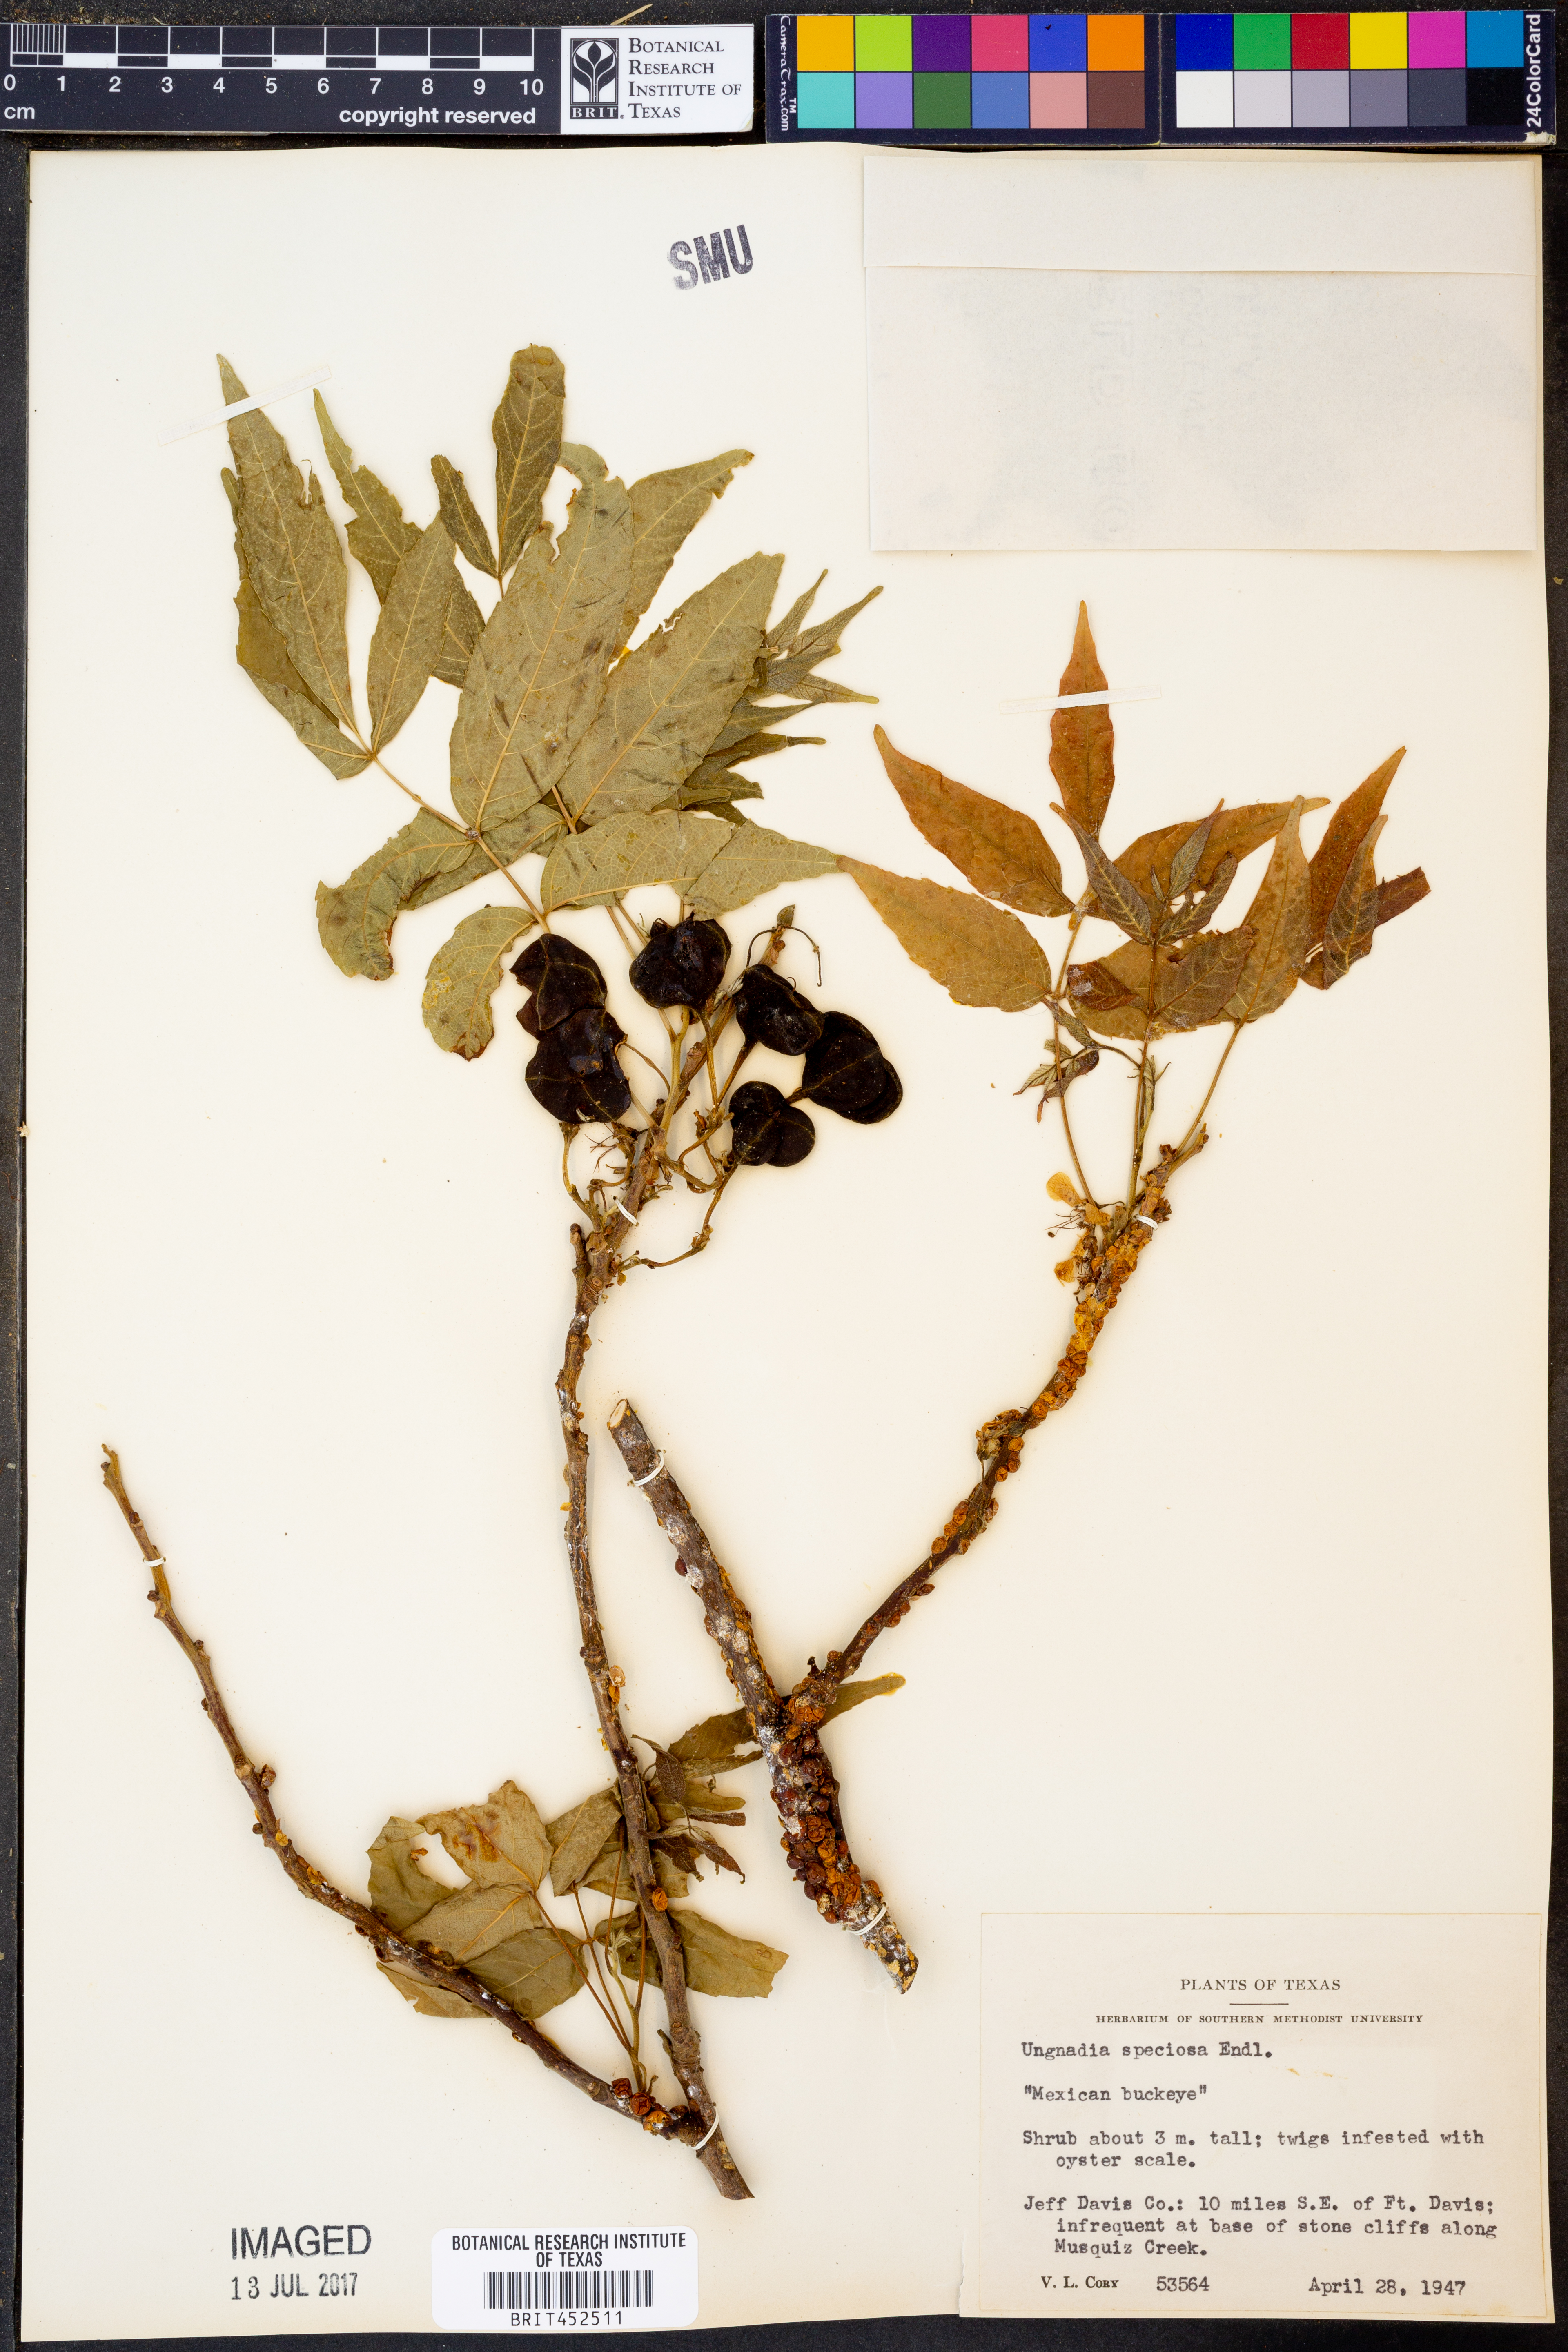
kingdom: Plantae
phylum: Tracheophyta
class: Magnoliopsida
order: Sapindales
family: Sapindaceae
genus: Ungnadia
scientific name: Ungnadia speciosa
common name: Texas-buckeye
